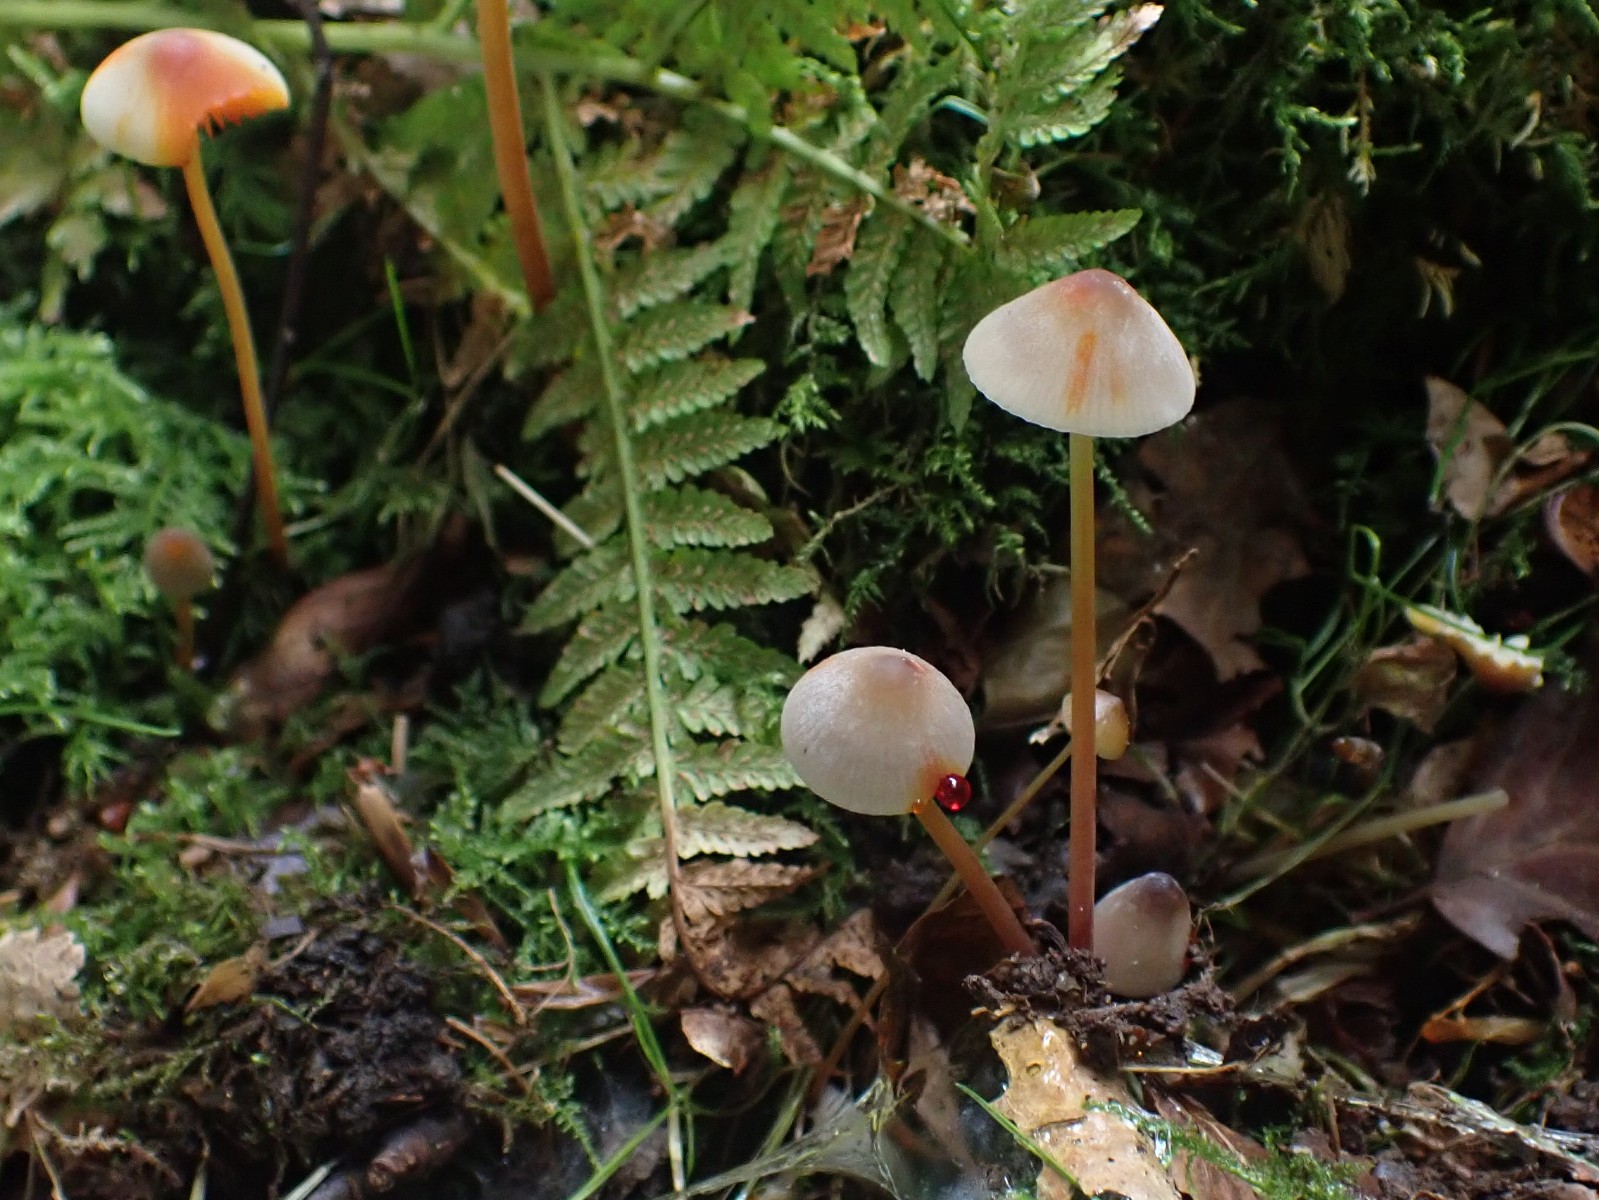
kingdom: Fungi
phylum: Basidiomycota
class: Agaricomycetes
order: Agaricales
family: Mycenaceae
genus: Mycena
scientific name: Mycena crocata
